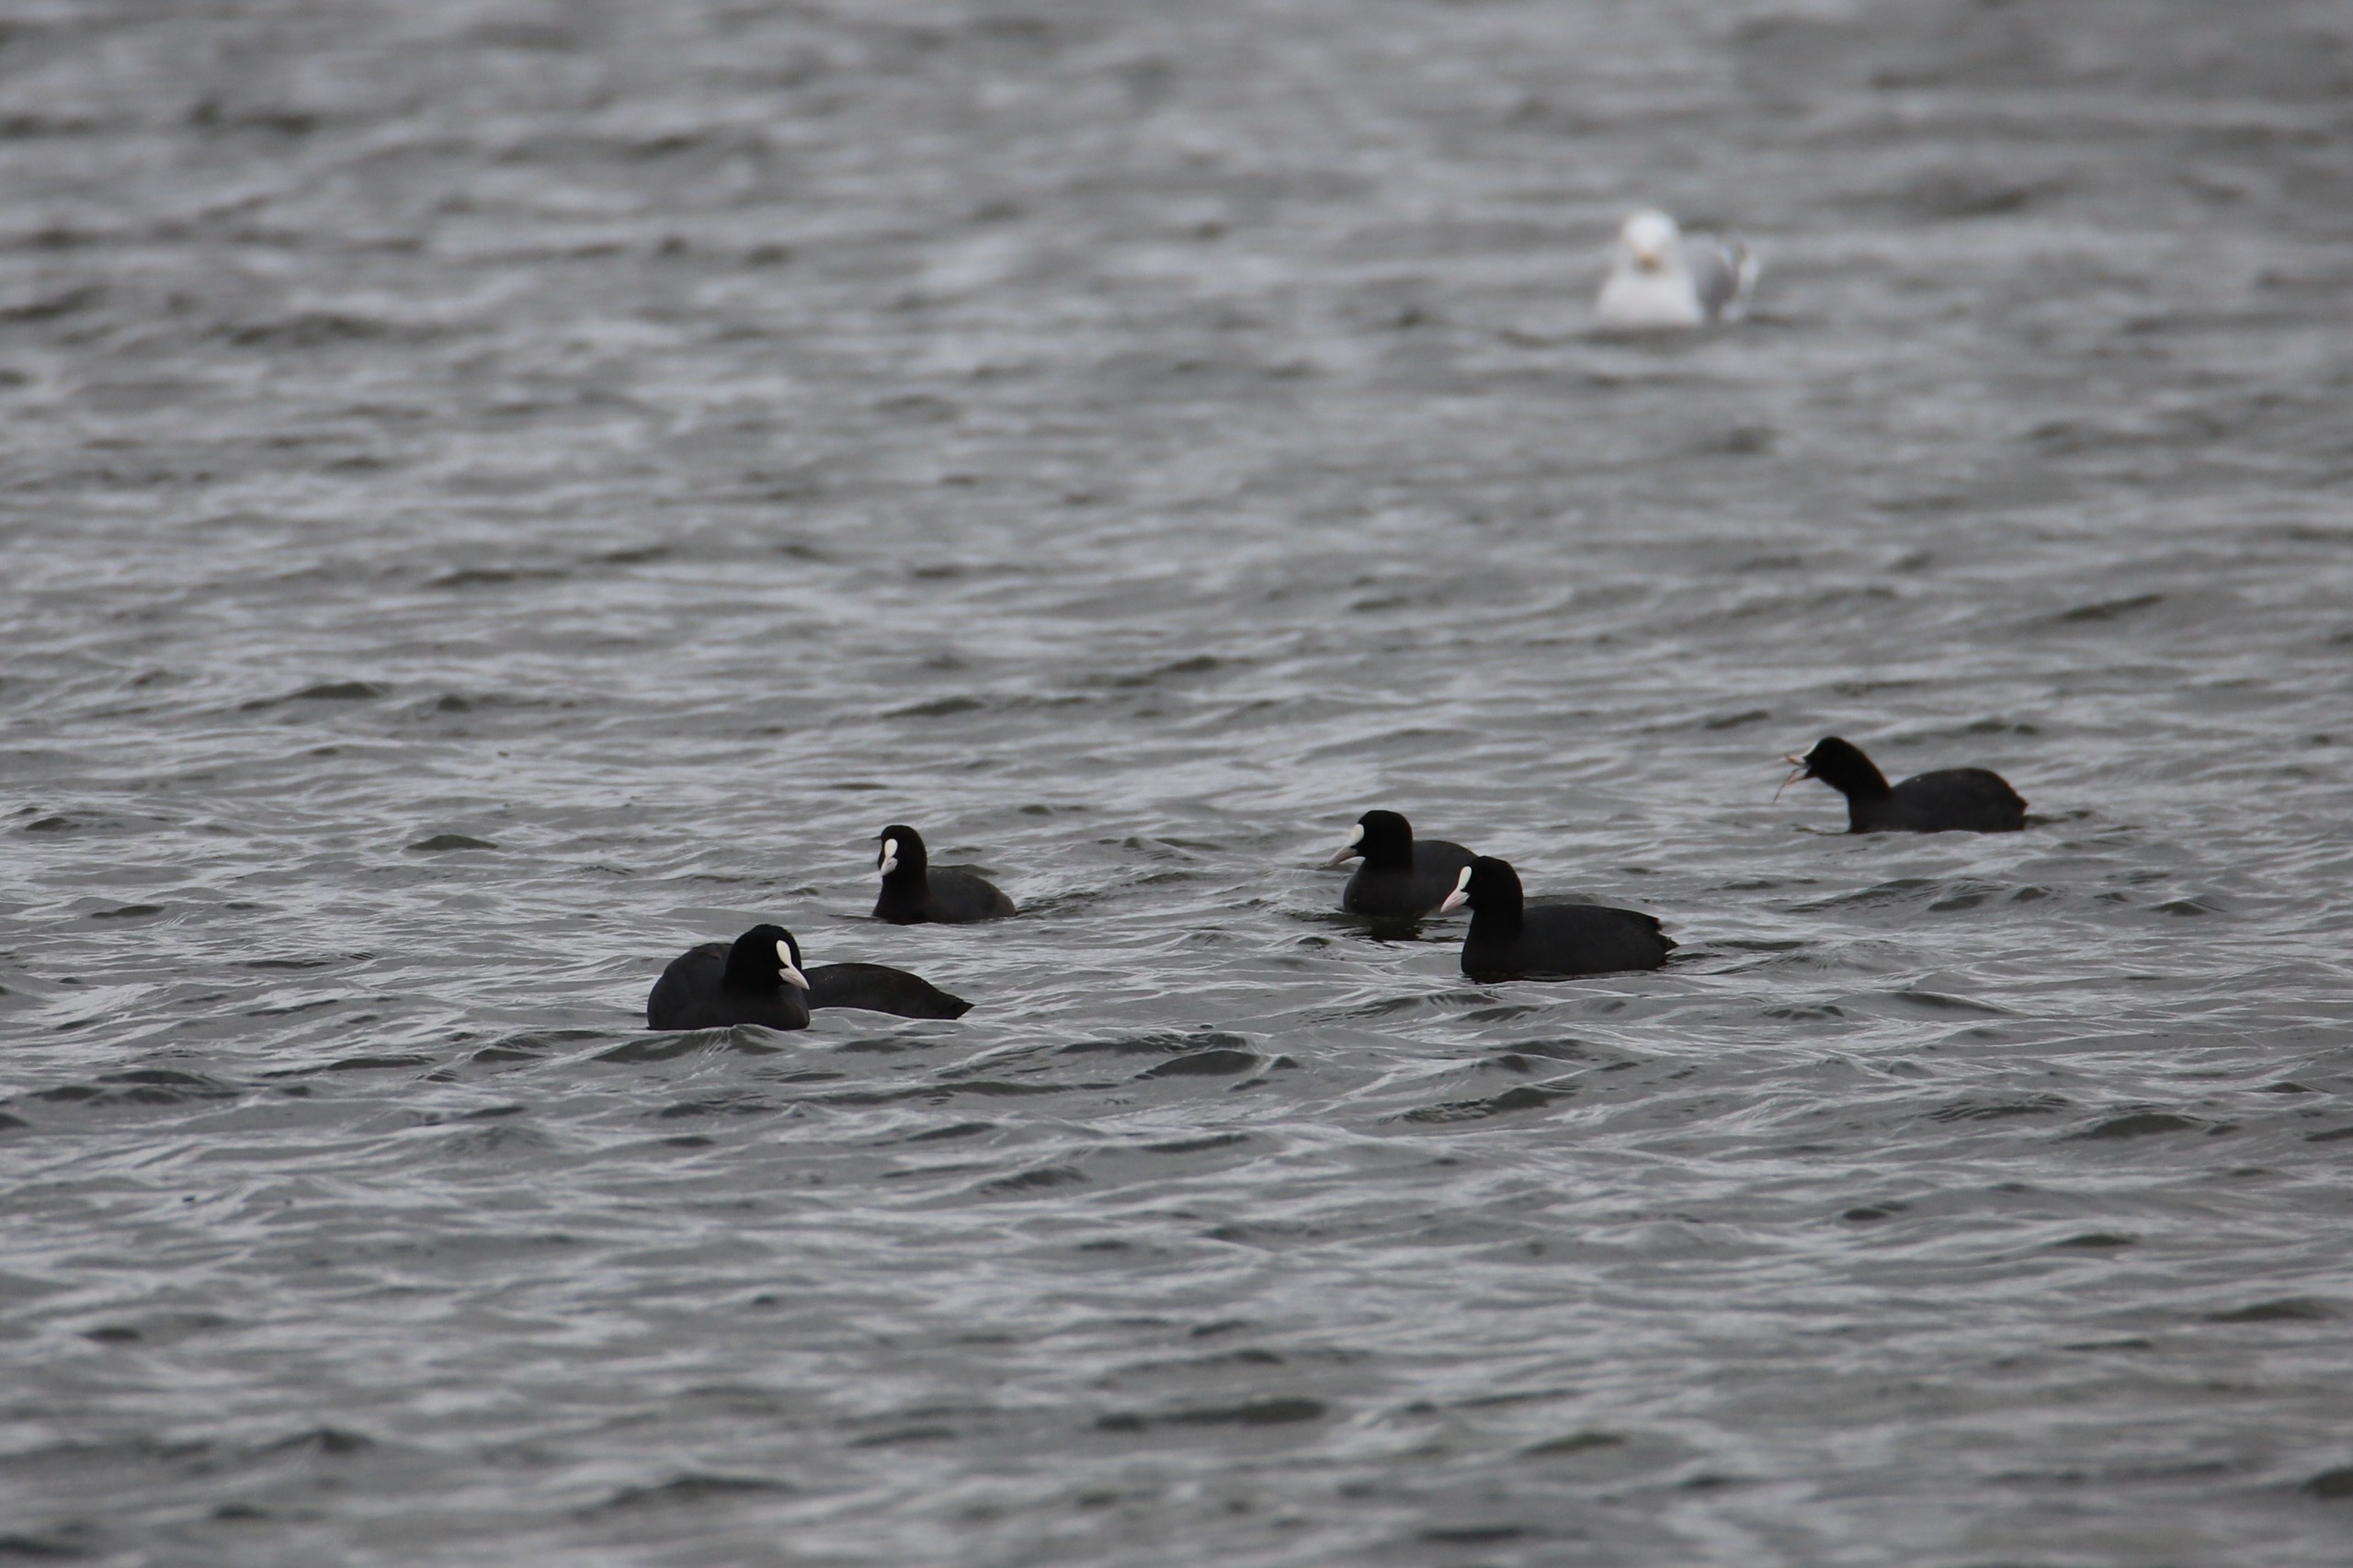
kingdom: Animalia
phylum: Chordata
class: Aves
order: Gruiformes
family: Rallidae
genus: Fulica
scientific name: Fulica atra
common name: Blishøne
